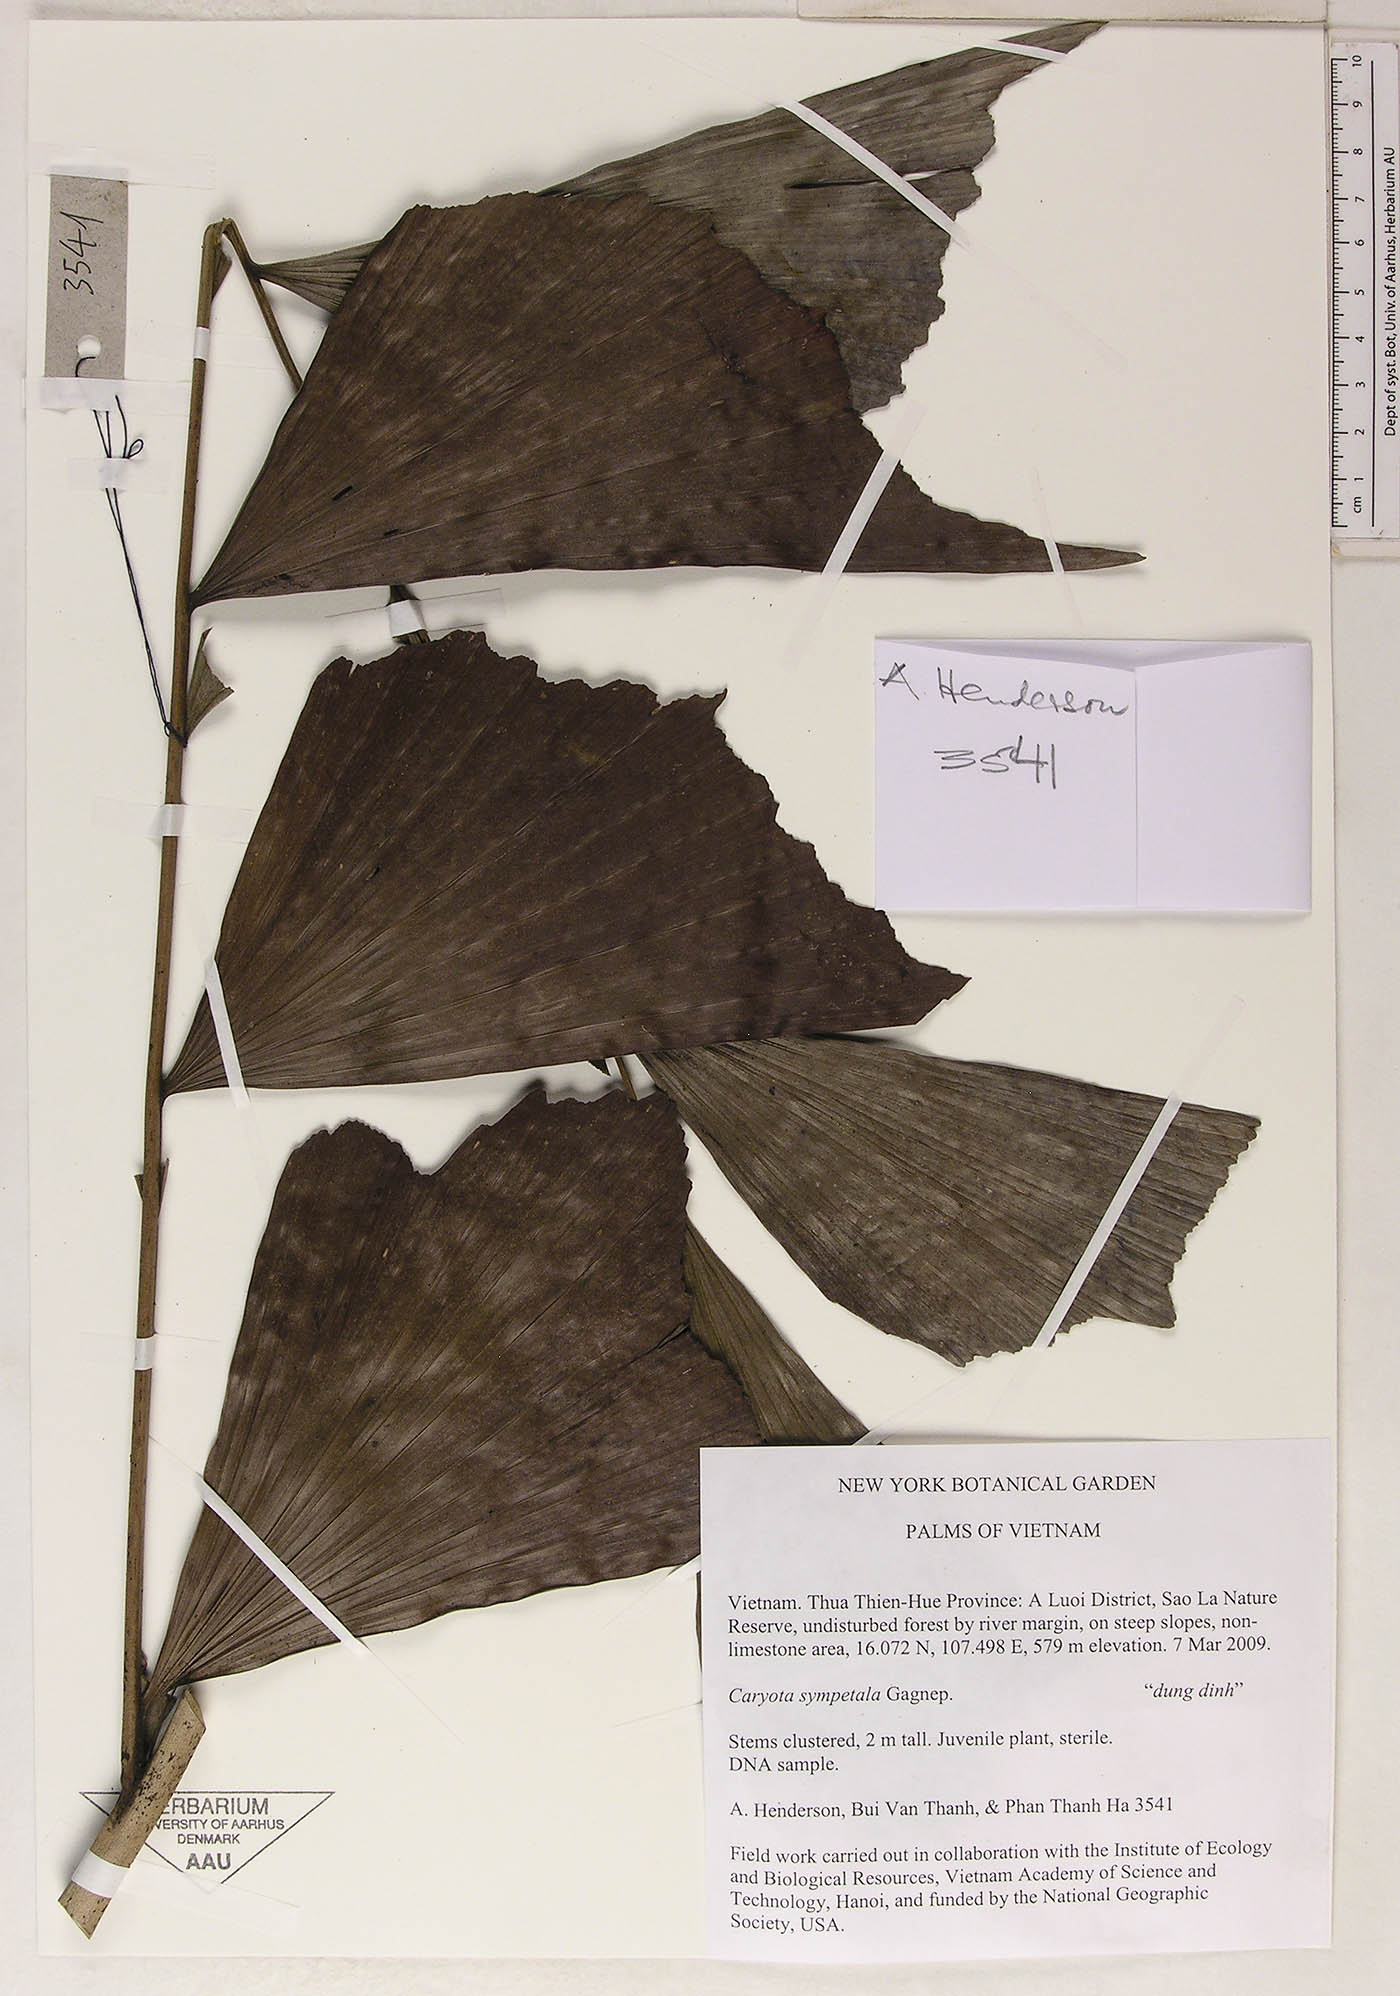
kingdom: Plantae
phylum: Tracheophyta
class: Liliopsida
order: Arecales
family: Arecaceae
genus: Caryota
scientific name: Caryota sympetala
